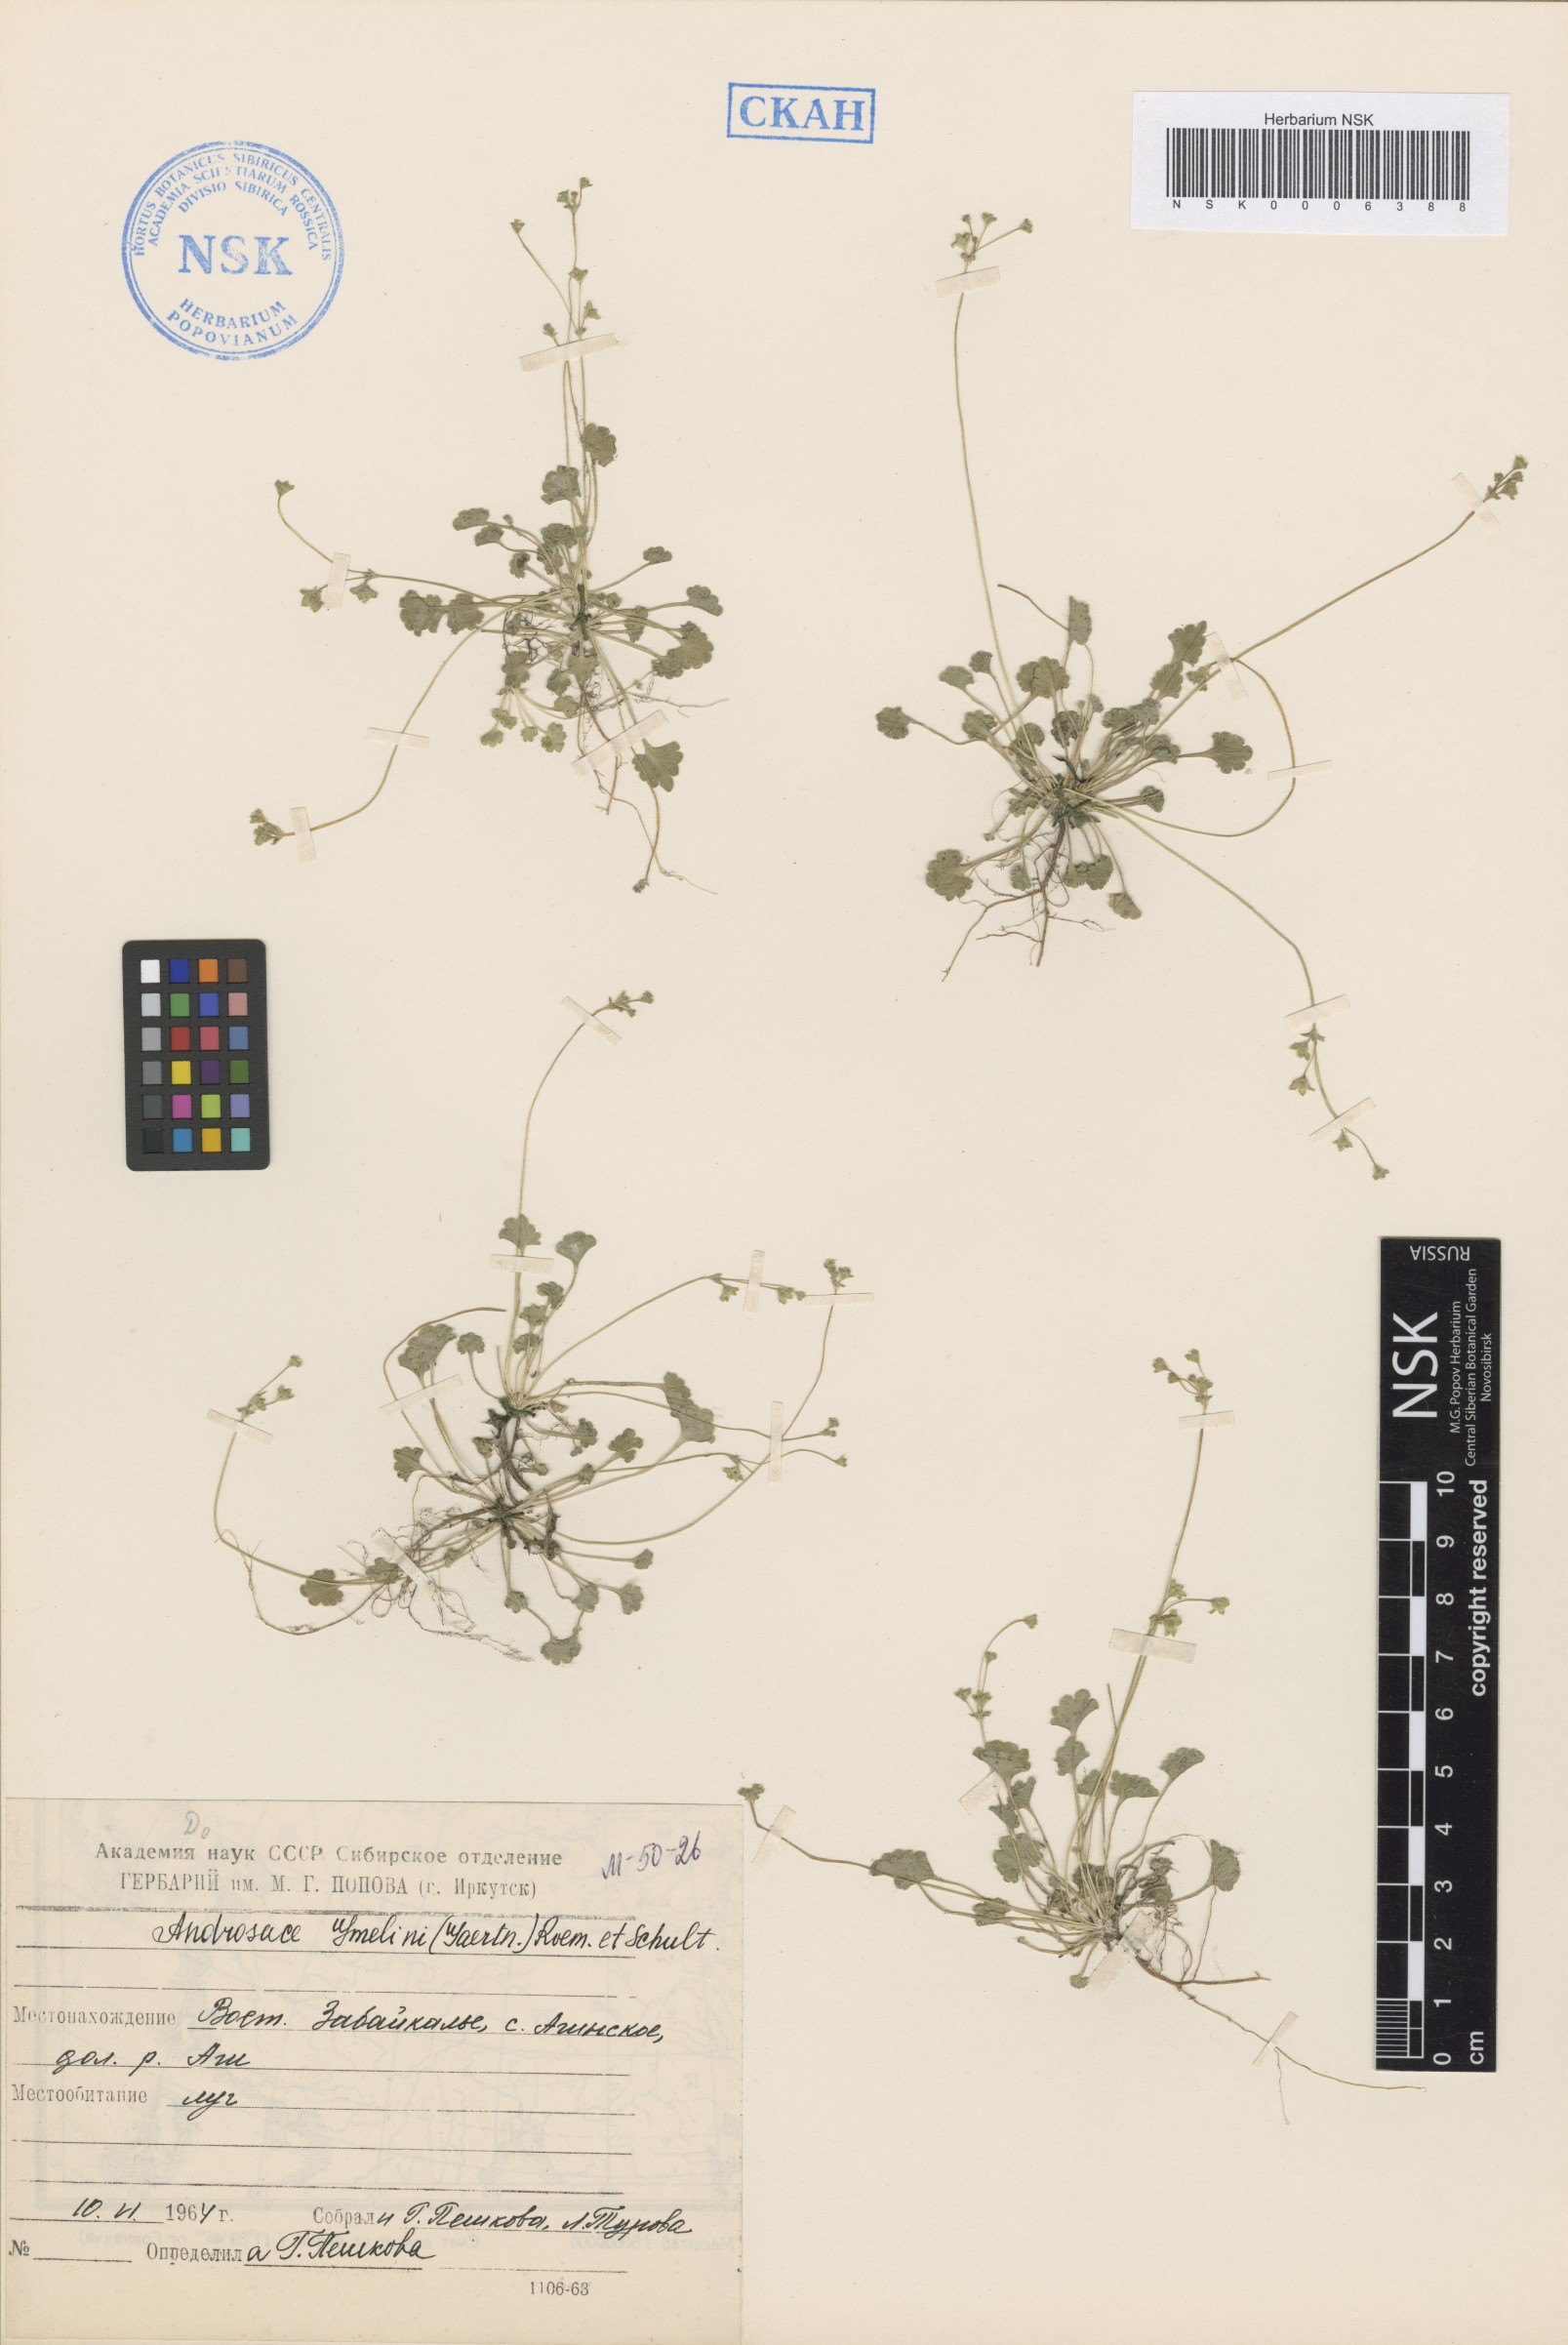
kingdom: Plantae
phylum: Tracheophyta
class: Magnoliopsida
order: Ericales
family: Primulaceae
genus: Androsace
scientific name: Androsace gmelinii
